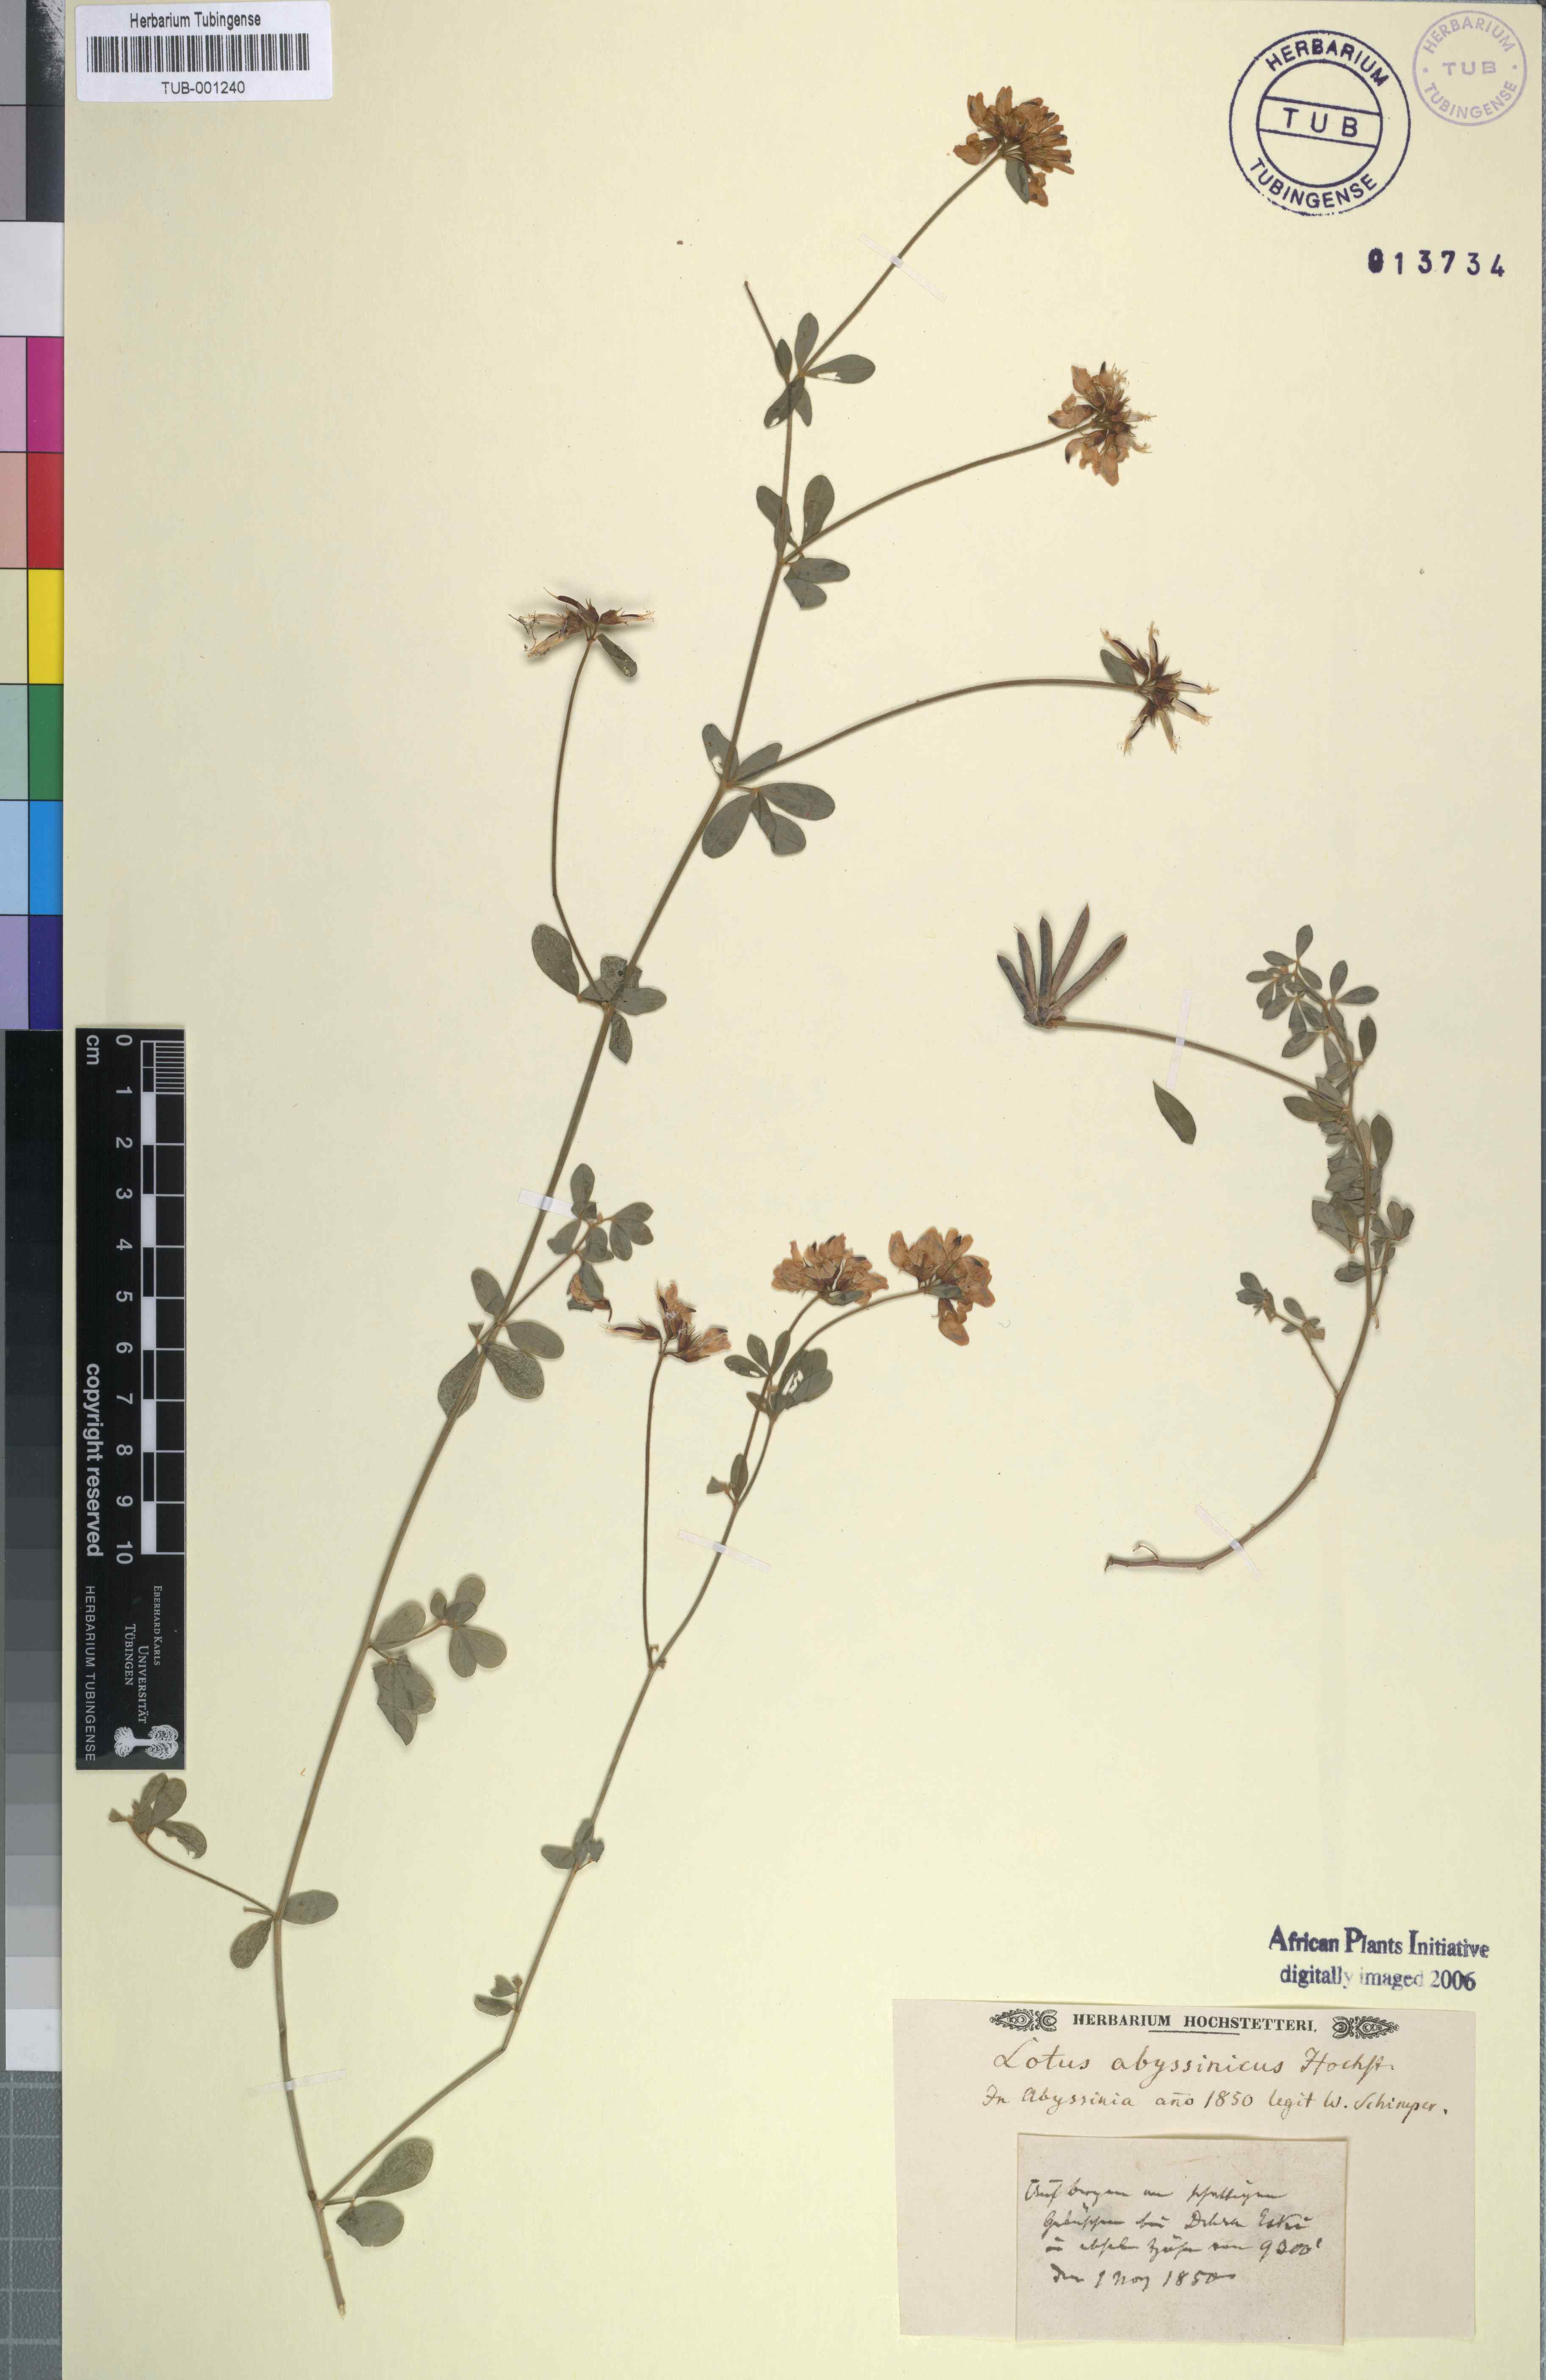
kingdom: Plantae
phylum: Tracheophyta
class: Magnoliopsida
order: Fabales
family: Fabaceae
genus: Lotus
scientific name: Lotus
